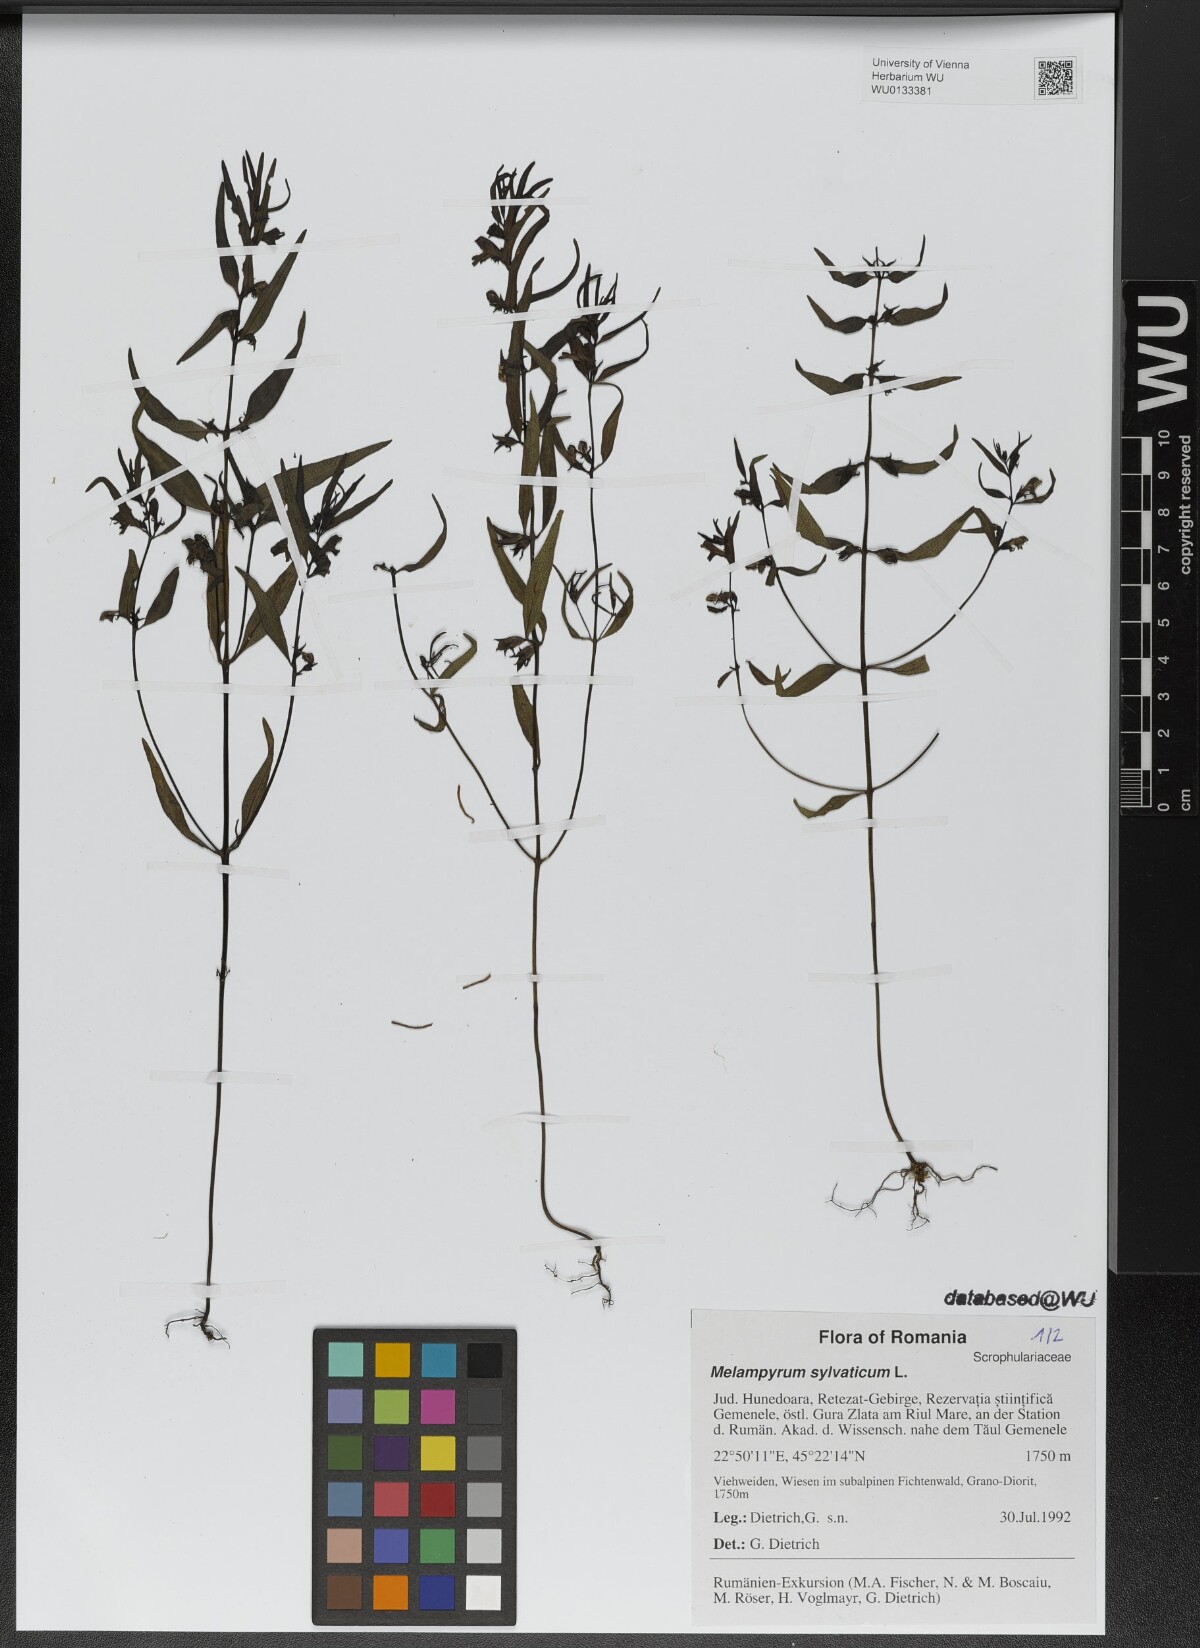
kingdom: Plantae
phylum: Tracheophyta
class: Magnoliopsida
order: Lamiales
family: Orobanchaceae
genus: Melampyrum
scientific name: Melampyrum sylvaticum
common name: Small cow-wheat
